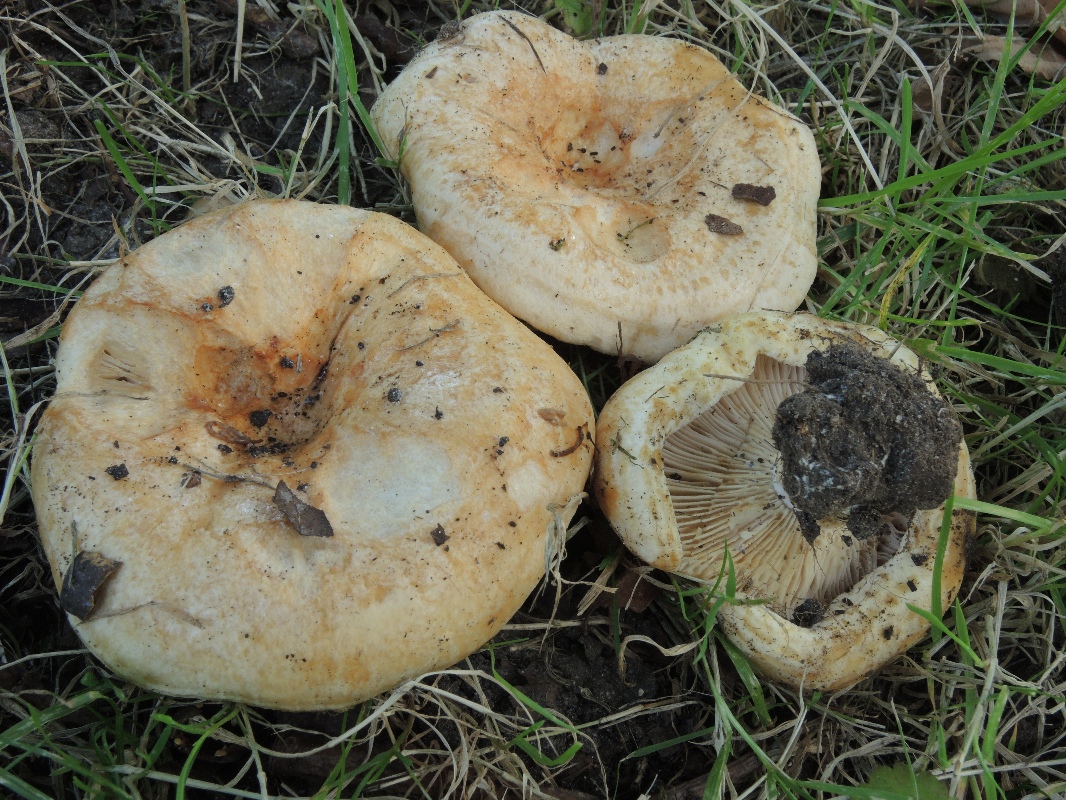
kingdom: Fungi
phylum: Basidiomycota
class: Agaricomycetes
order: Russulales
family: Russulaceae
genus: Lactarius
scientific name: Lactarius acerrimus
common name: brændende mælkehat
